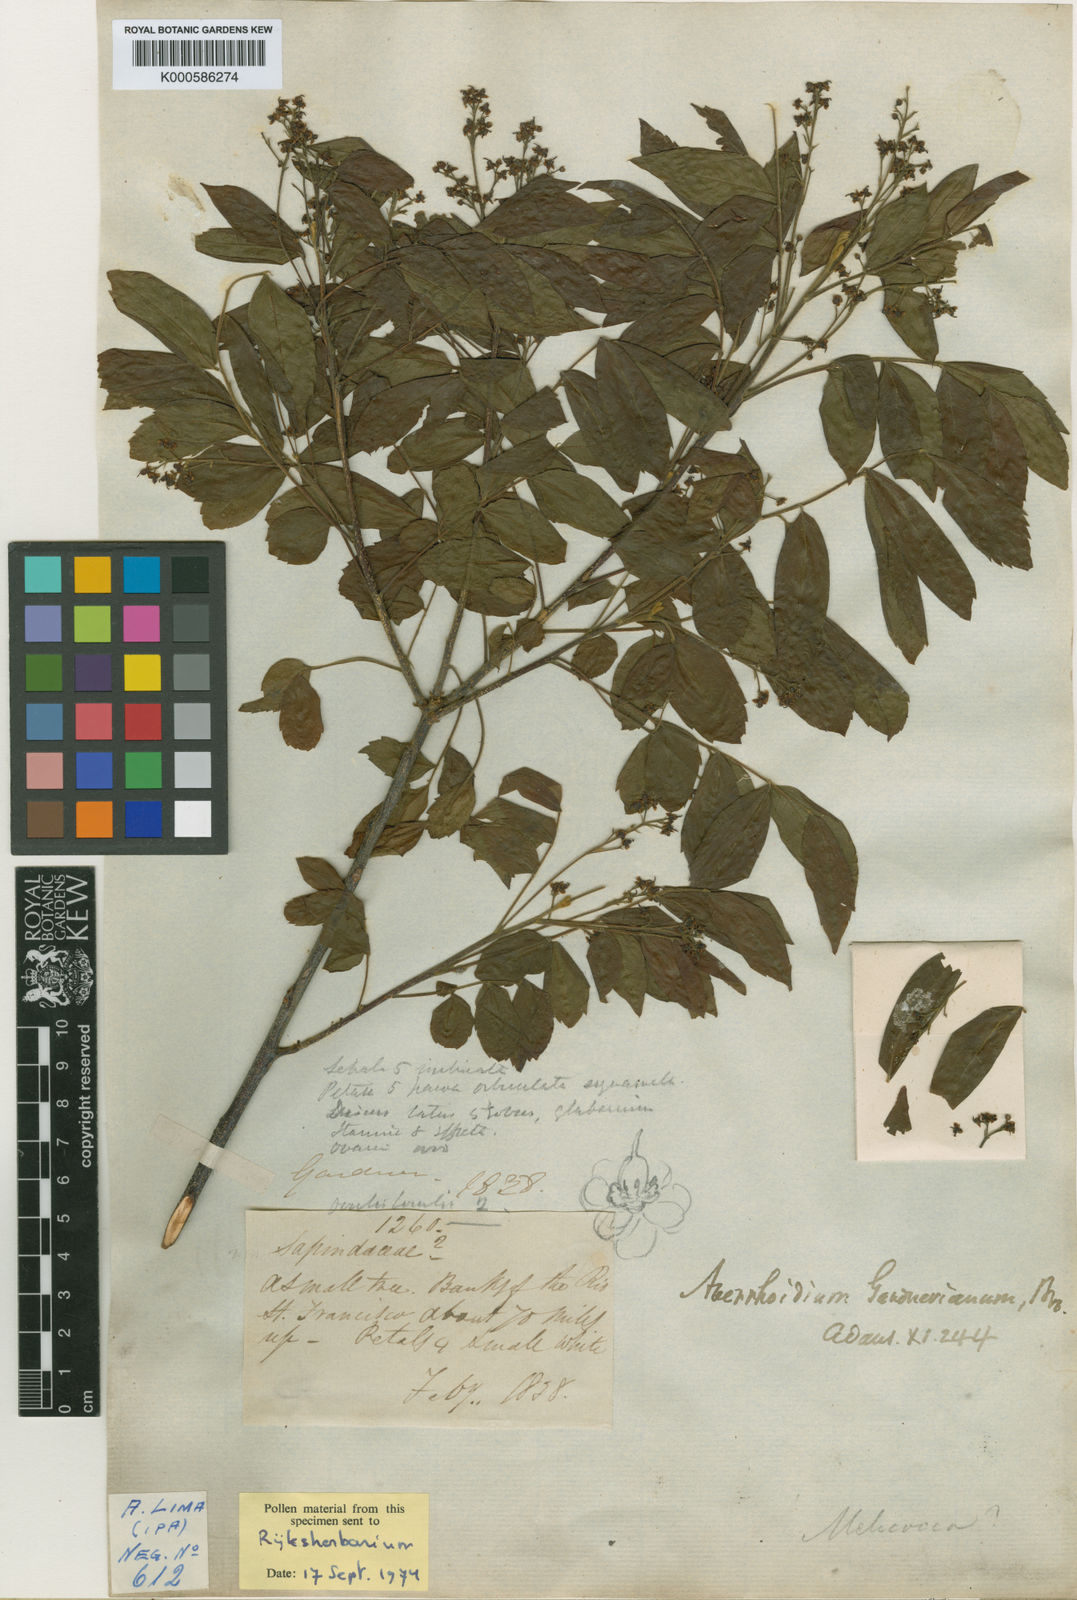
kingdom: Plantae
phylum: Tracheophyta
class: Magnoliopsida
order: Sapindales
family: Sapindaceae
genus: Averrhoidium
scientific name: Averrhoidium gardnerianum
